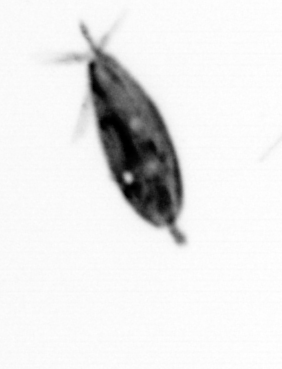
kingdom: Animalia
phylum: Arthropoda
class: Maxillopoda
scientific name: Maxillopoda
